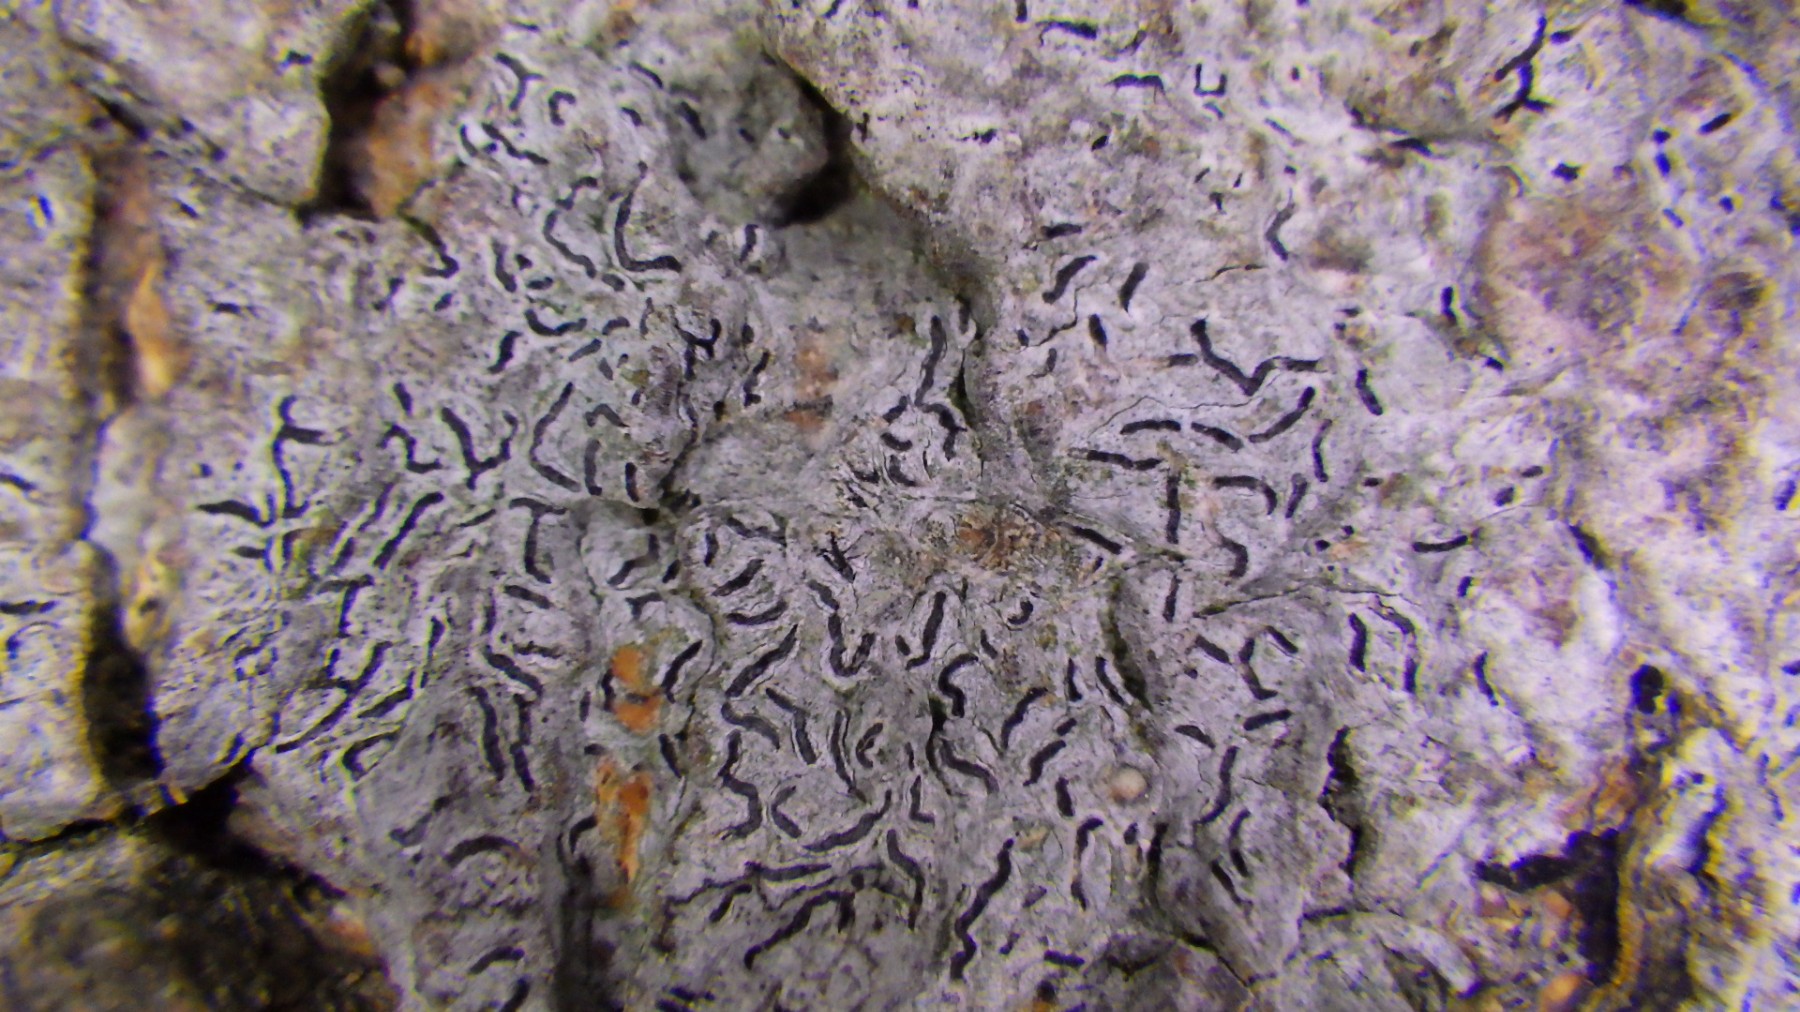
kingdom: Fungi
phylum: Ascomycota
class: Lecanoromycetes
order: Ostropales
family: Graphidaceae
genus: Graphis
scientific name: Graphis scripta
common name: almindelig skriftlav
